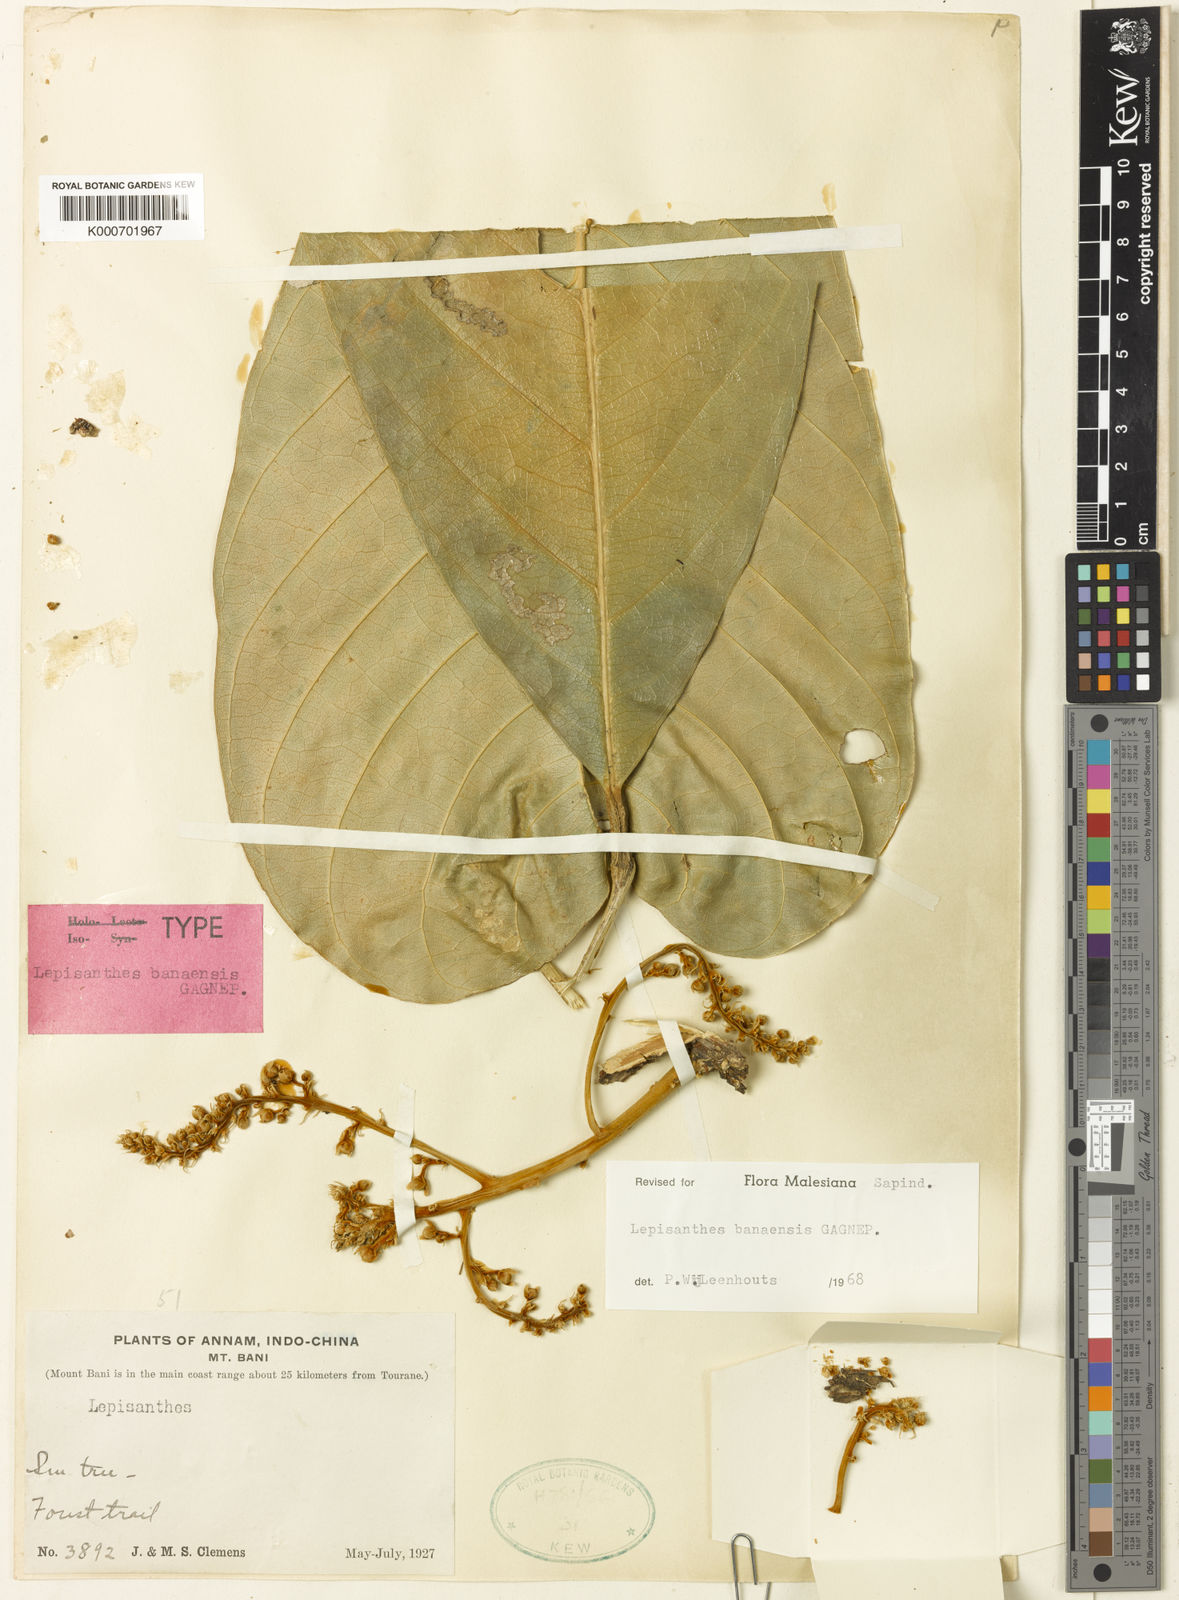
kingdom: Plantae
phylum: Tracheophyta
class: Magnoliopsida
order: Sapindales
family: Sapindaceae
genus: Lepisanthes
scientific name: Lepisanthes banaensis
